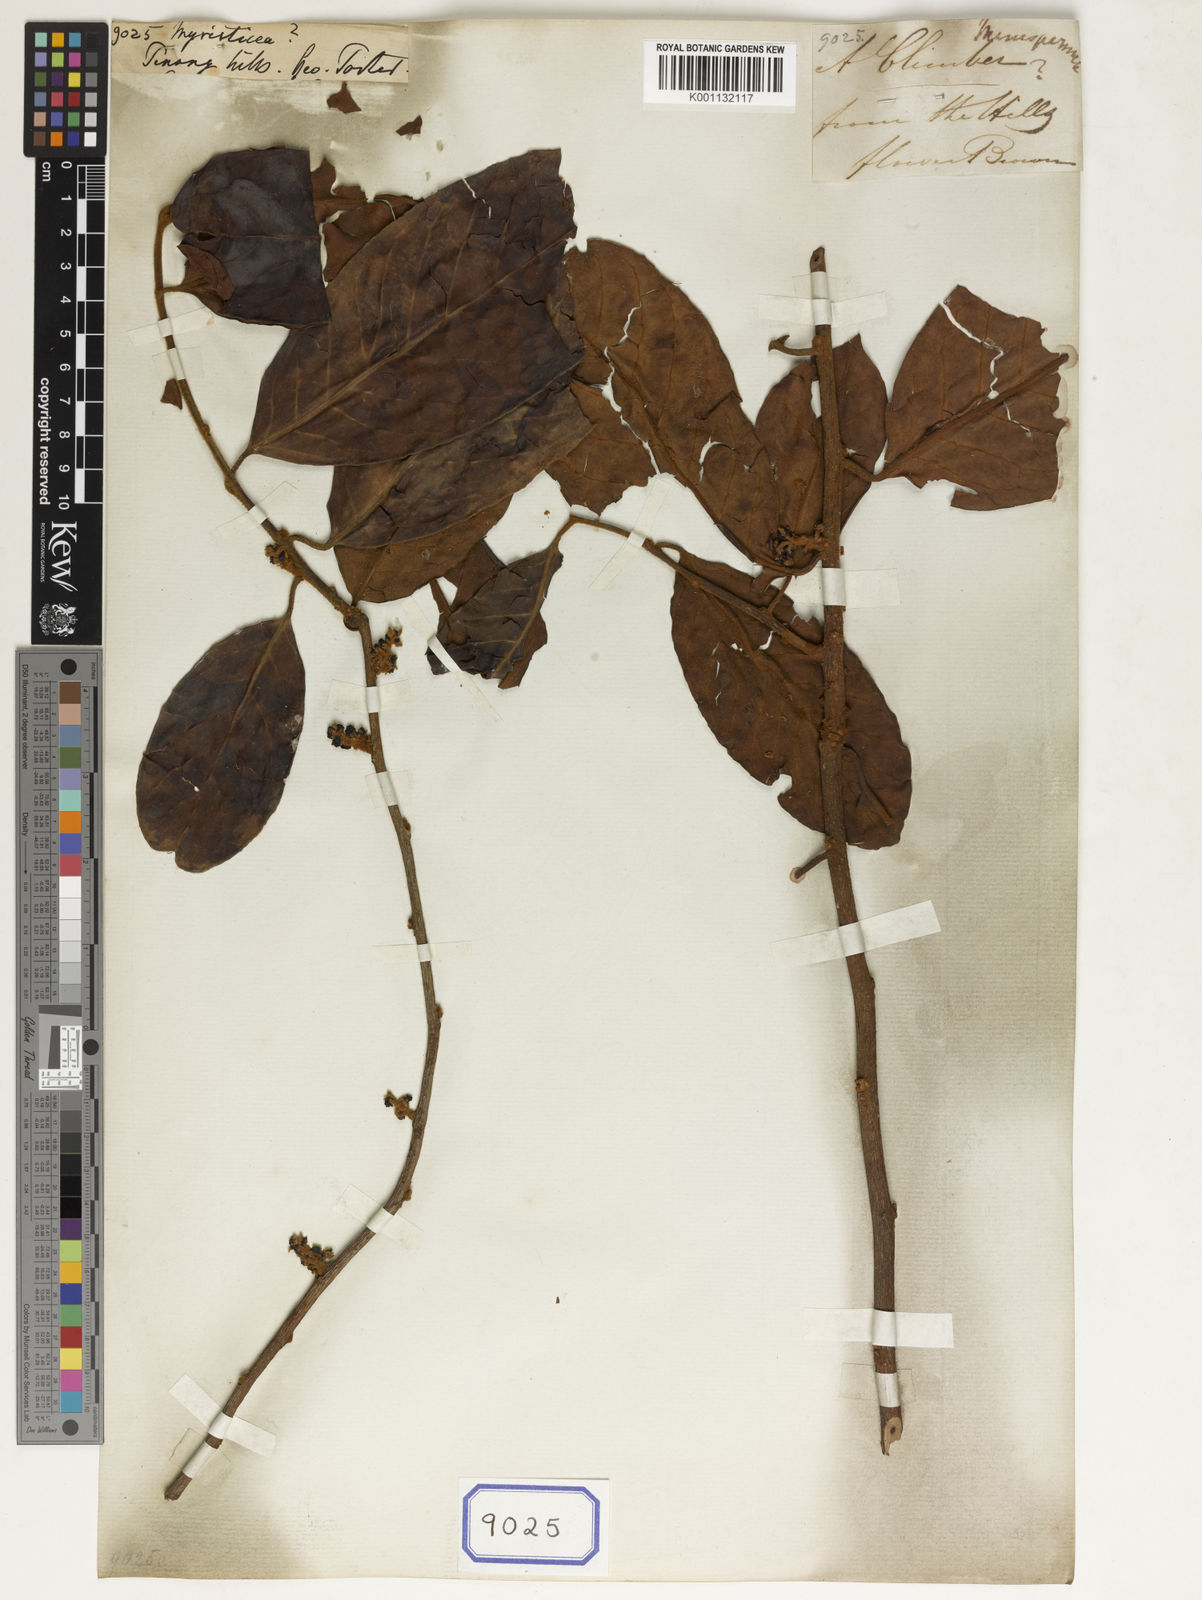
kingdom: Plantae
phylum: Tracheophyta
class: Magnoliopsida
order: Magnoliales
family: Myristicaceae
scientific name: Myristicaceae
